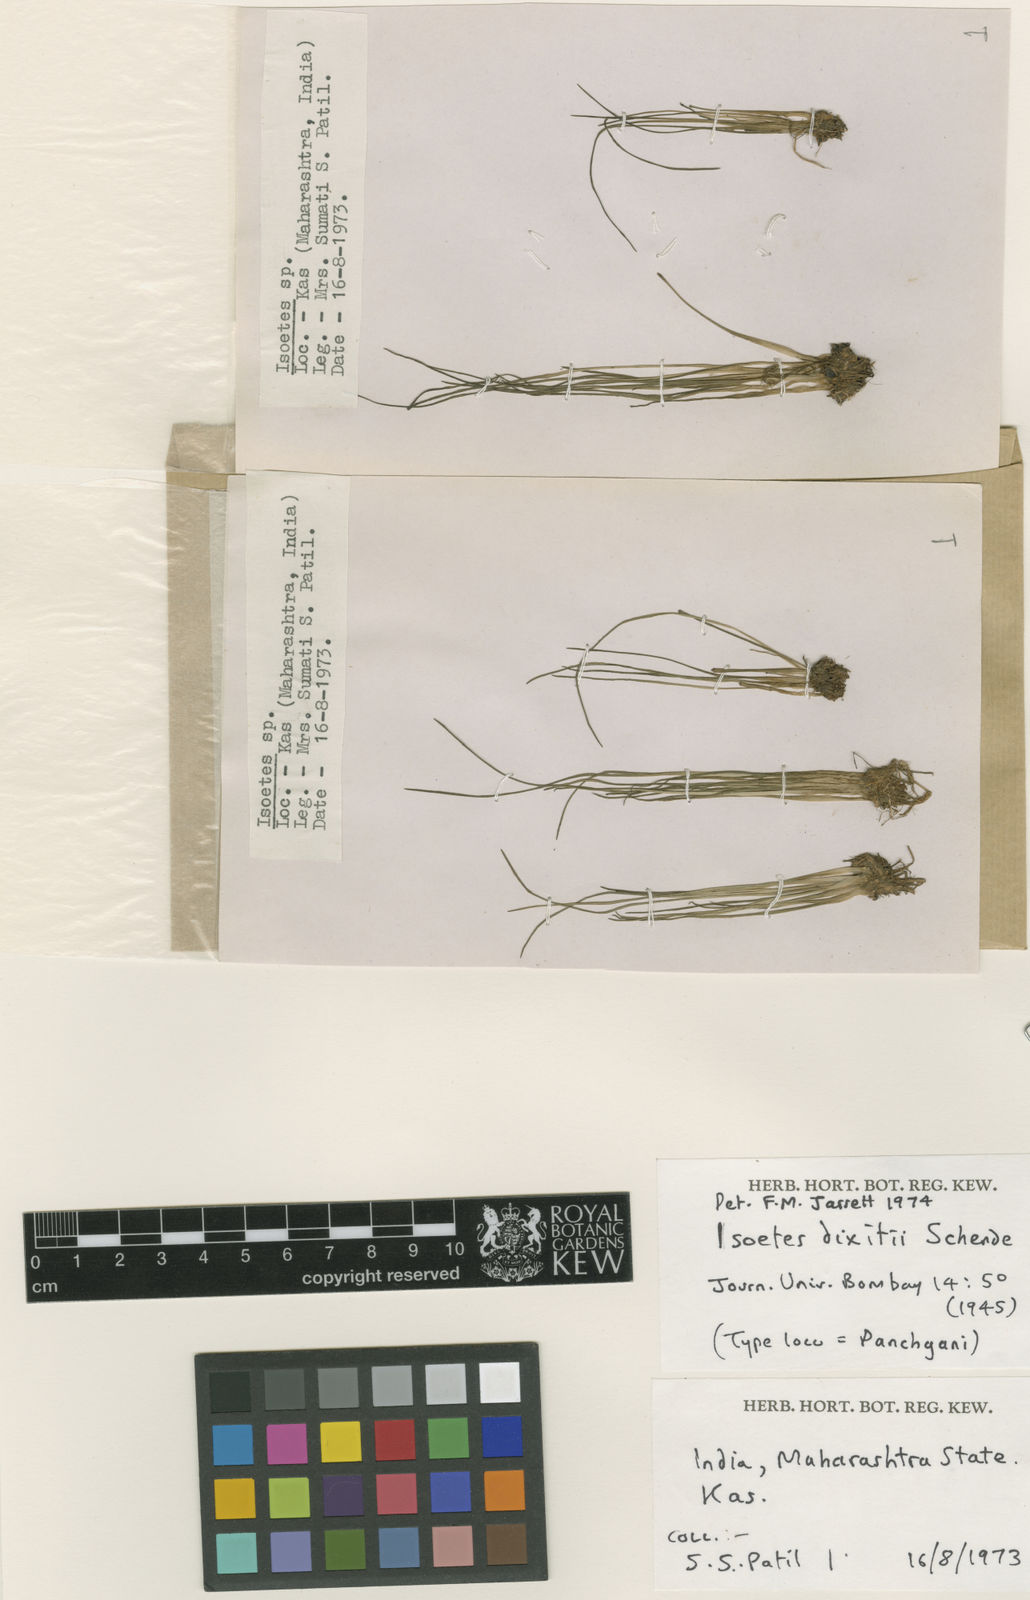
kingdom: Plantae
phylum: Tracheophyta
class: Lycopodiopsida
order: Isoetales
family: Isoetaceae
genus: Isoetes
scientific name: Isoetes coromandelina
